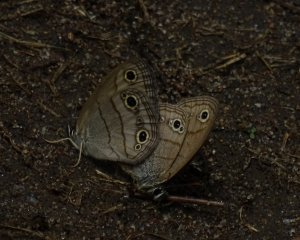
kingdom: Animalia
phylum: Arthropoda
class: Insecta
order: Lepidoptera
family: Nymphalidae
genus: Euptychia
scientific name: Euptychia cymela
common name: Little Wood Satyr
